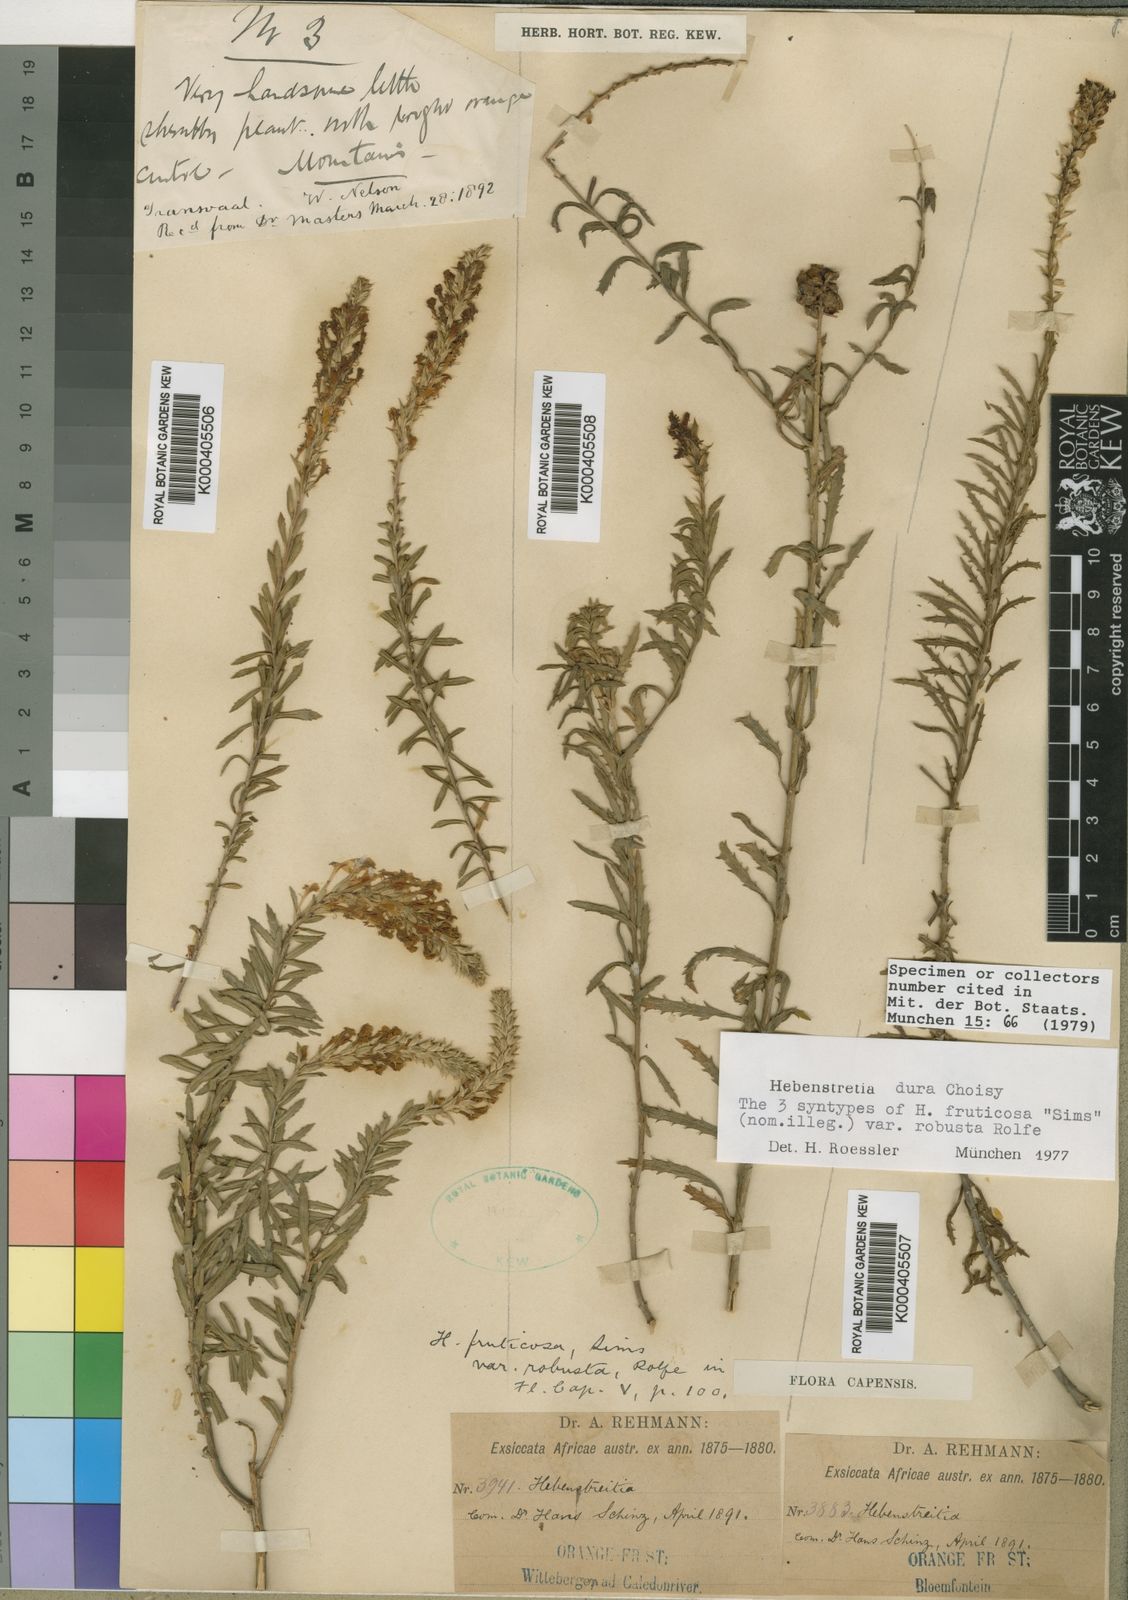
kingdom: Plantae
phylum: Tracheophyta
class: Magnoliopsida
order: Lamiales
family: Scrophulariaceae
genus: Hebenstretia
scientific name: Hebenstretia dura
